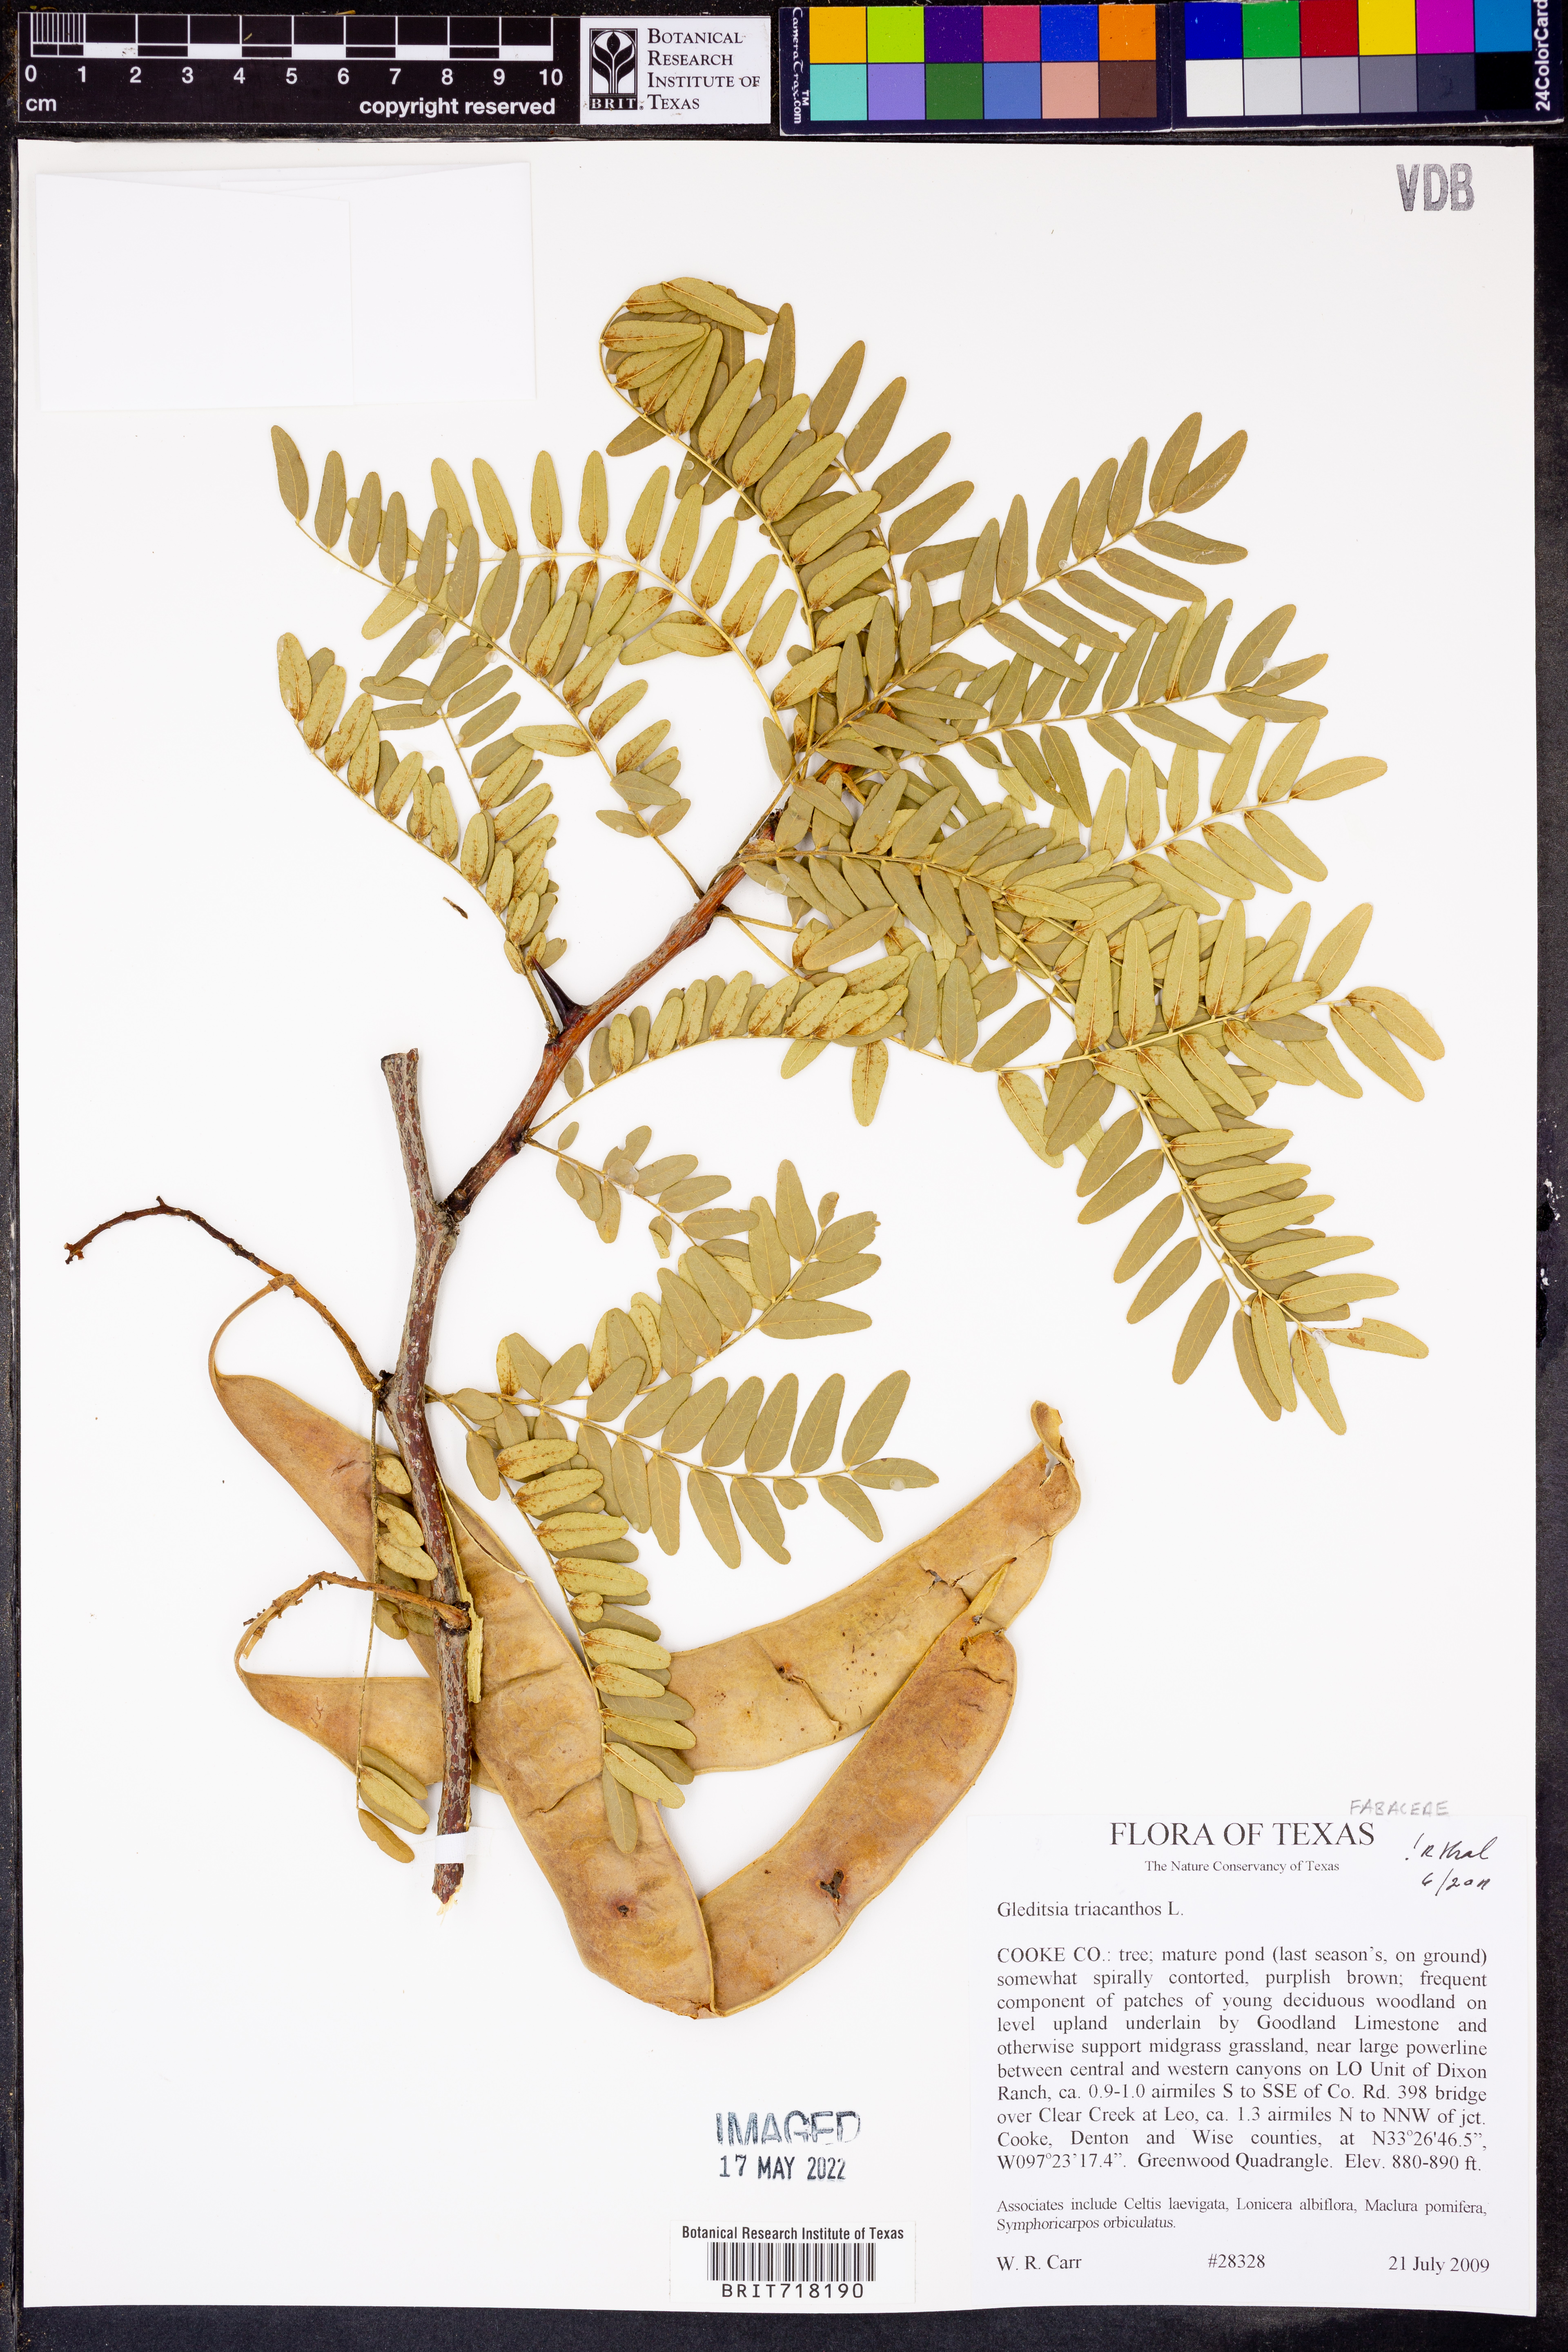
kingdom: Plantae
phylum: Tracheophyta
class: Magnoliopsida
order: Fabales
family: Fabaceae
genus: Gleditsia
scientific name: Gleditsia triacanthos
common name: Common honeylocust
